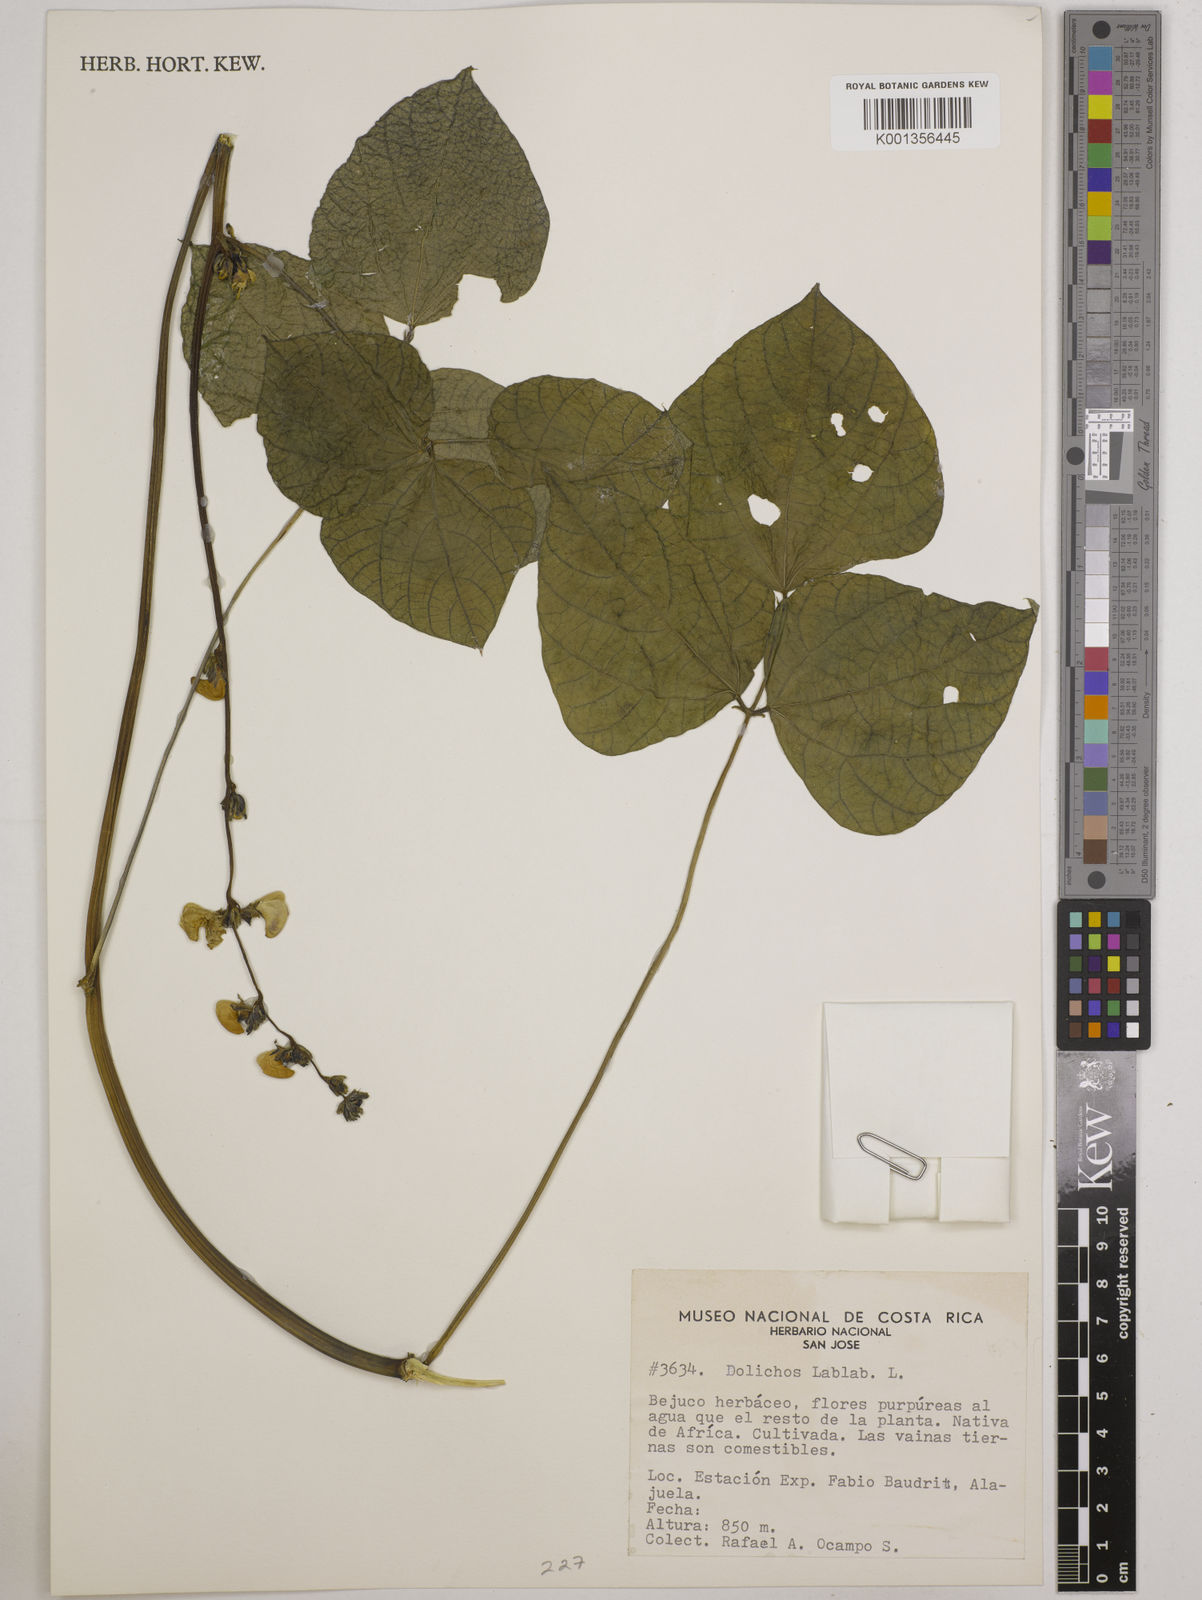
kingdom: Plantae
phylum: Tracheophyta
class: Magnoliopsida
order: Fabales
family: Fabaceae
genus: Lablab
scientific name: Lablab purpureus
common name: Lablab-bean
